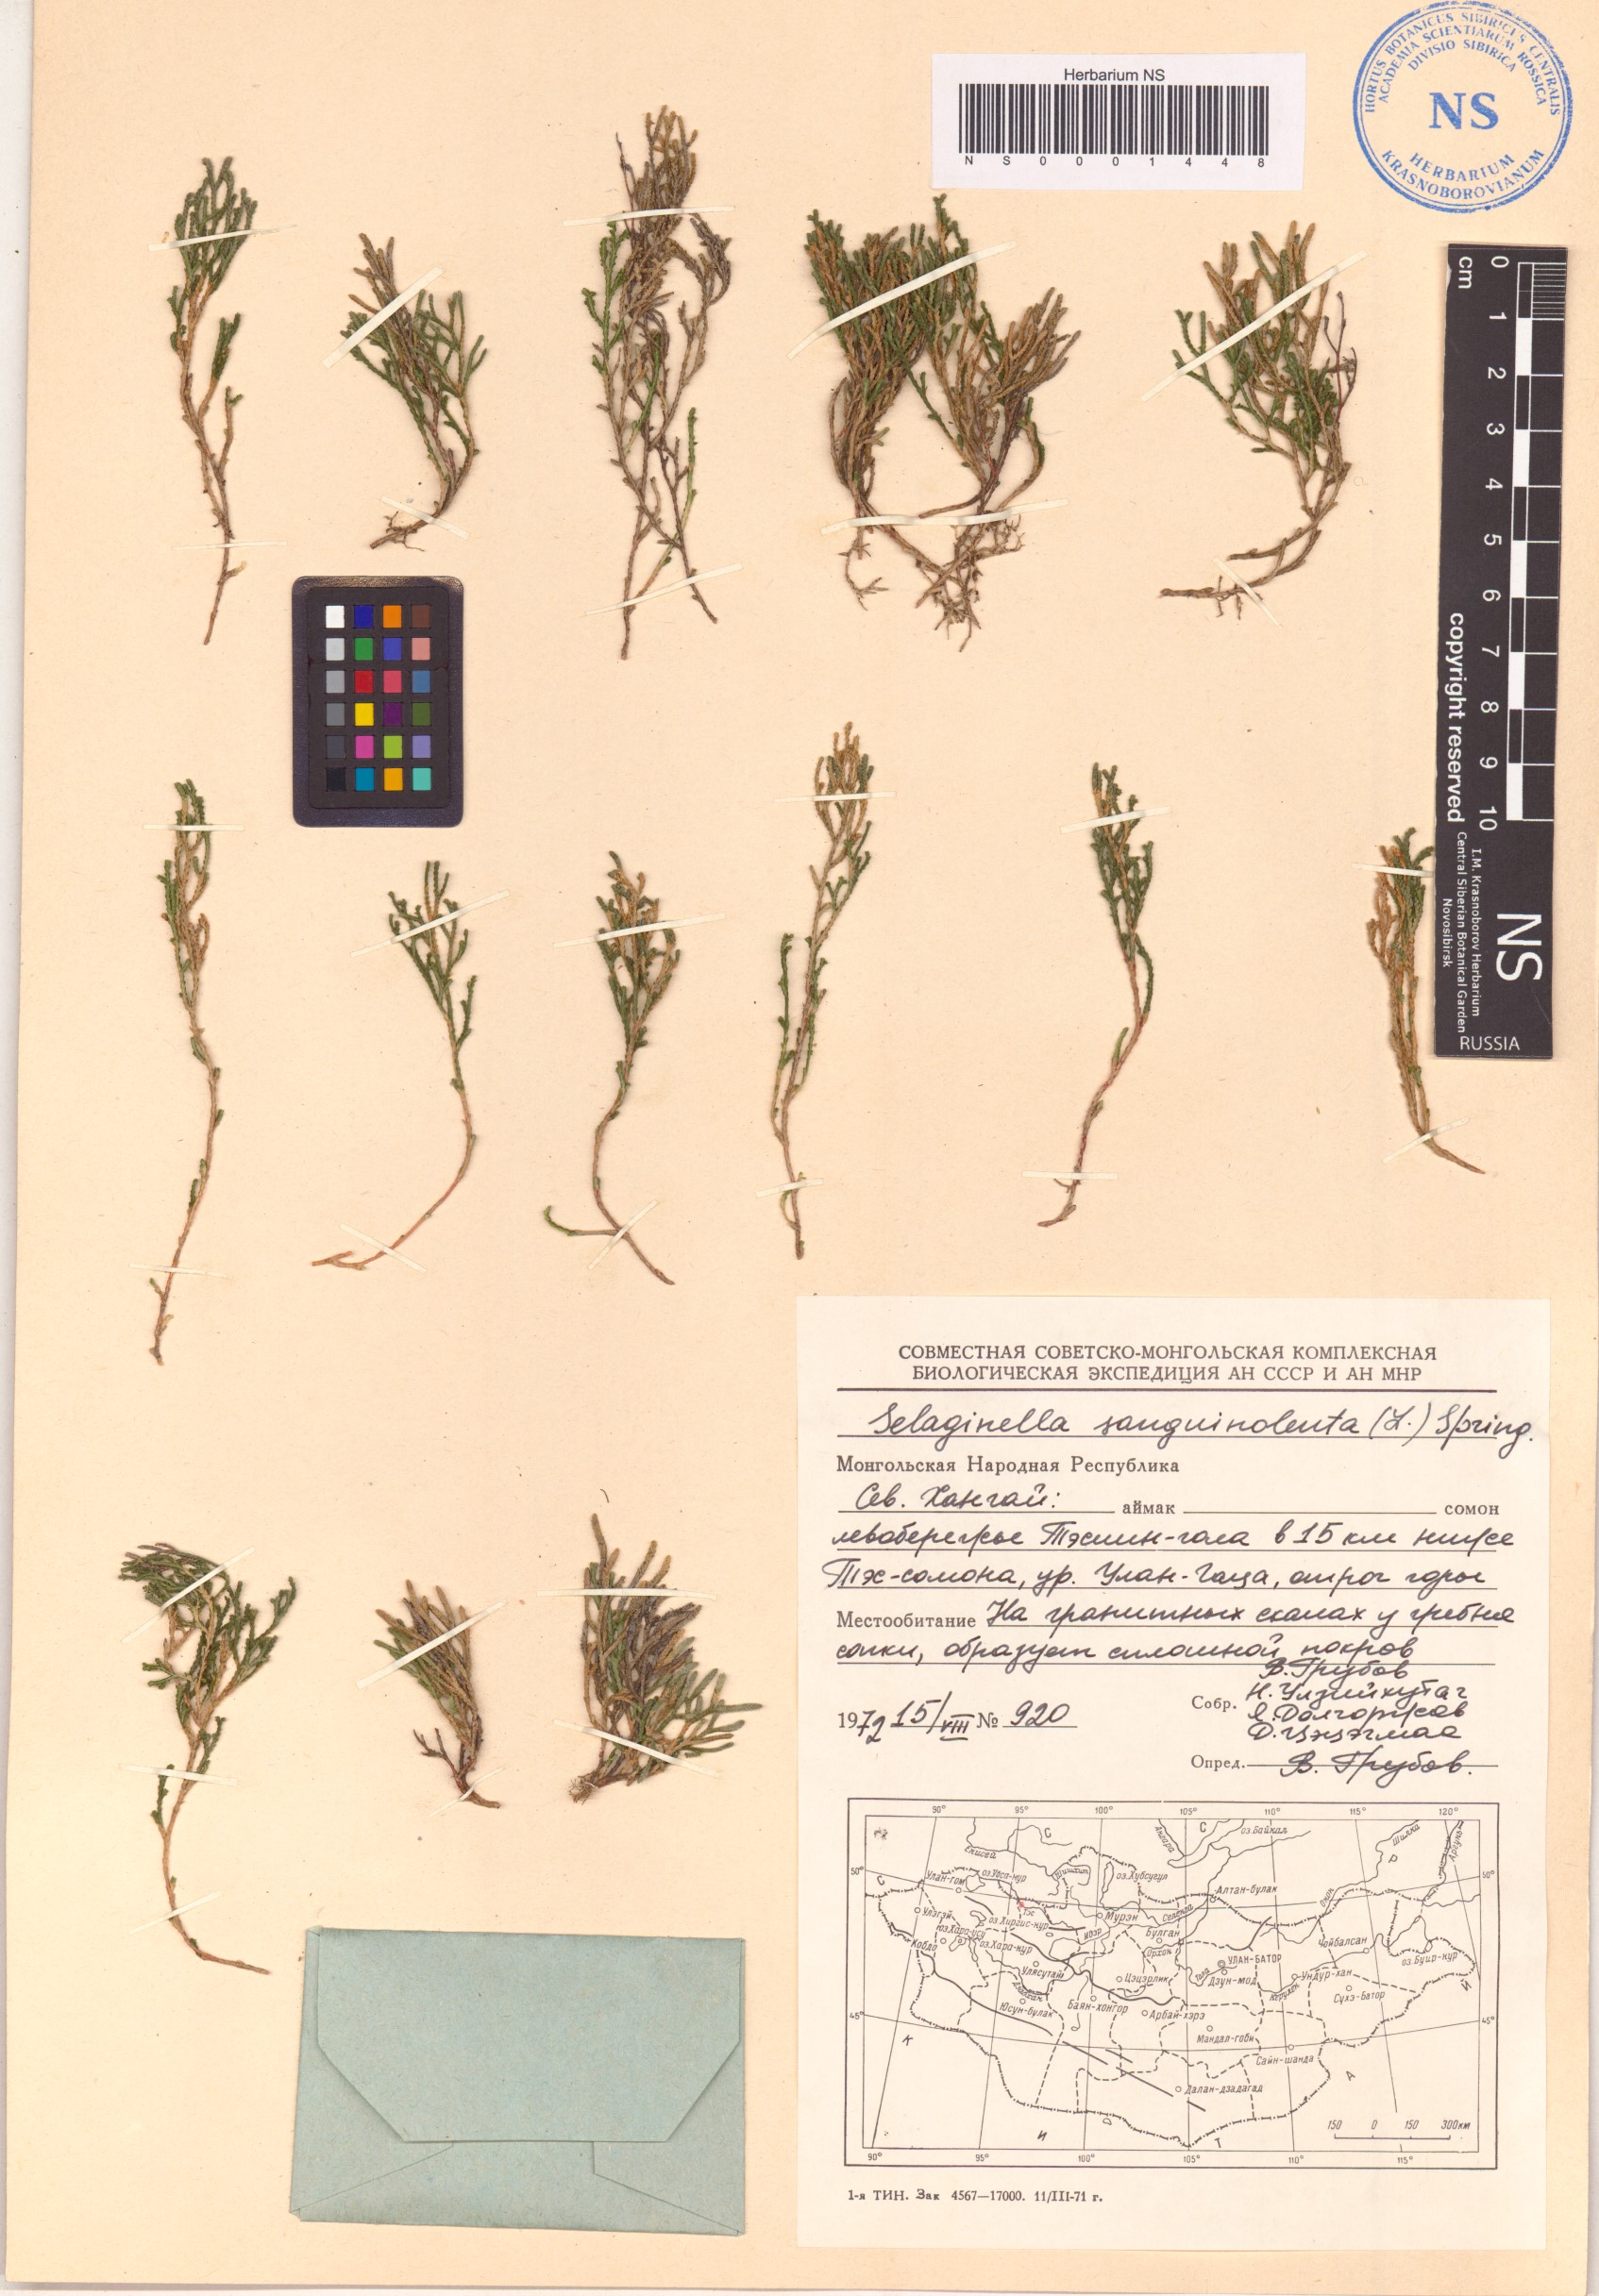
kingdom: Plantae
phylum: Tracheophyta
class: Lycopodiopsida
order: Selaginellales
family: Selaginellaceae
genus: Selaginella
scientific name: Selaginella sanguinolenta
